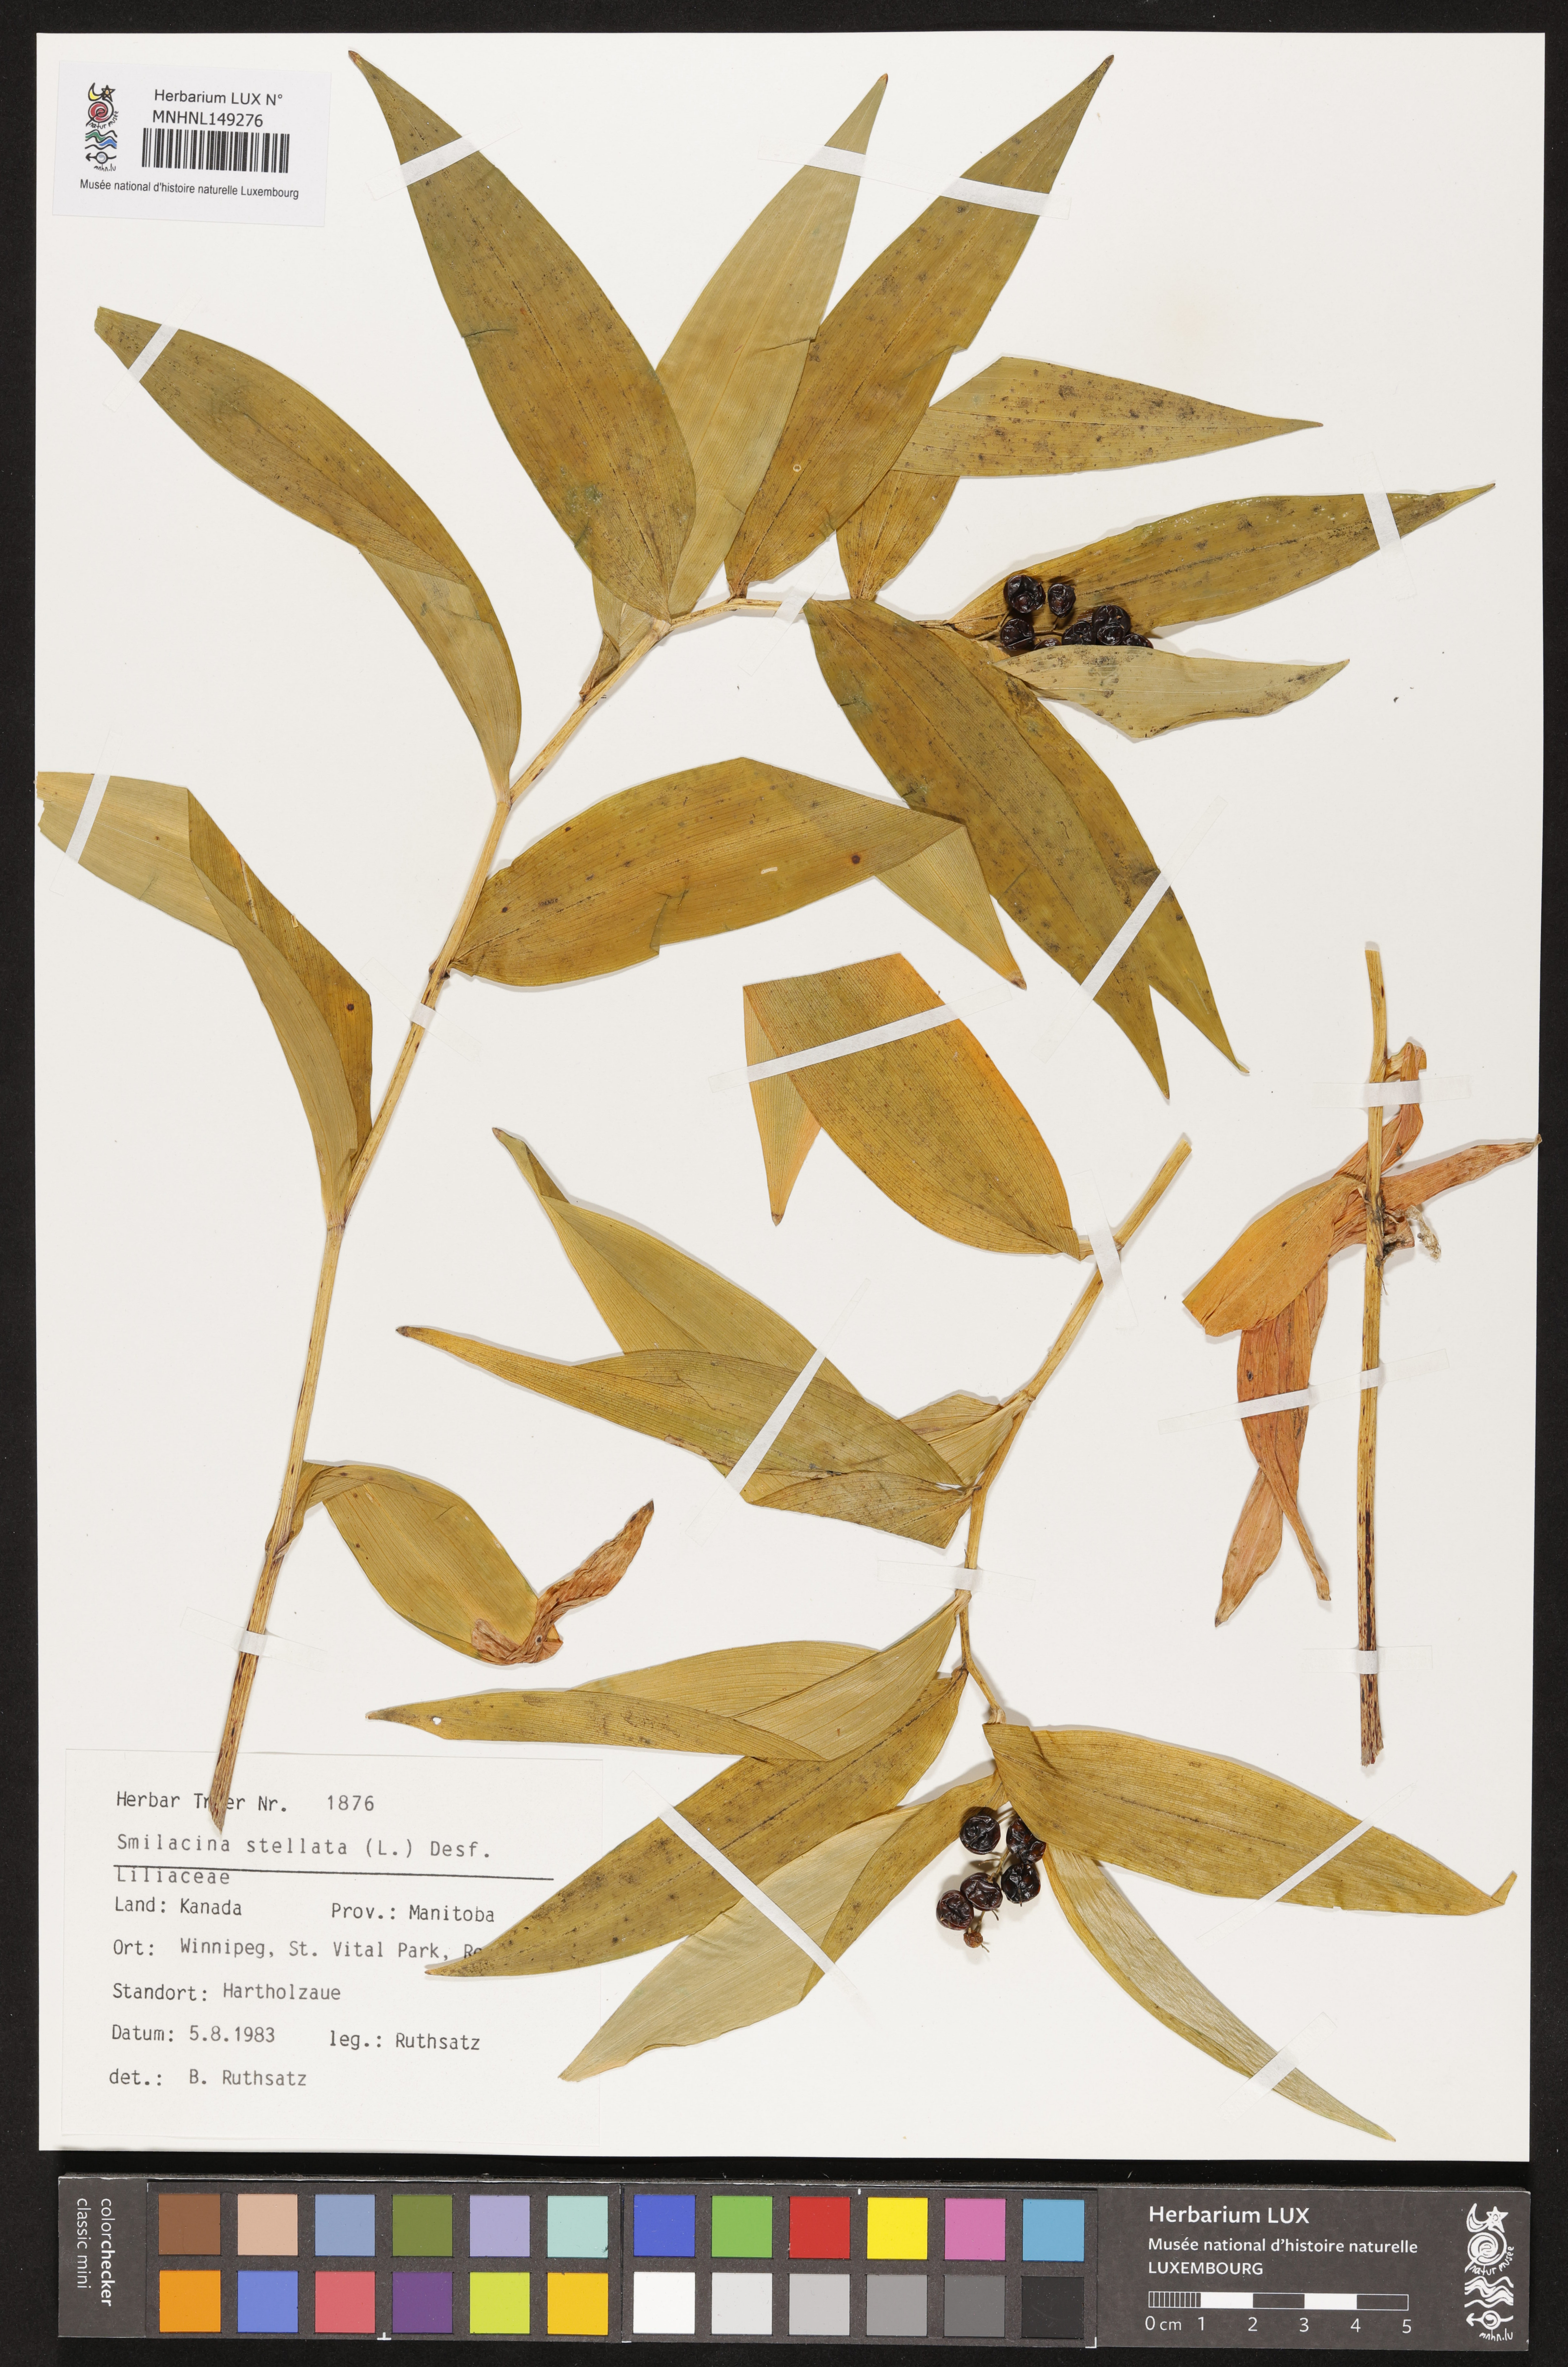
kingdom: Plantae
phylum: Tracheophyta
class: Liliopsida
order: Asparagales
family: Asparagaceae
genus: Maianthemum
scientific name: Maianthemum stellatum
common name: Little false solomon's seal
